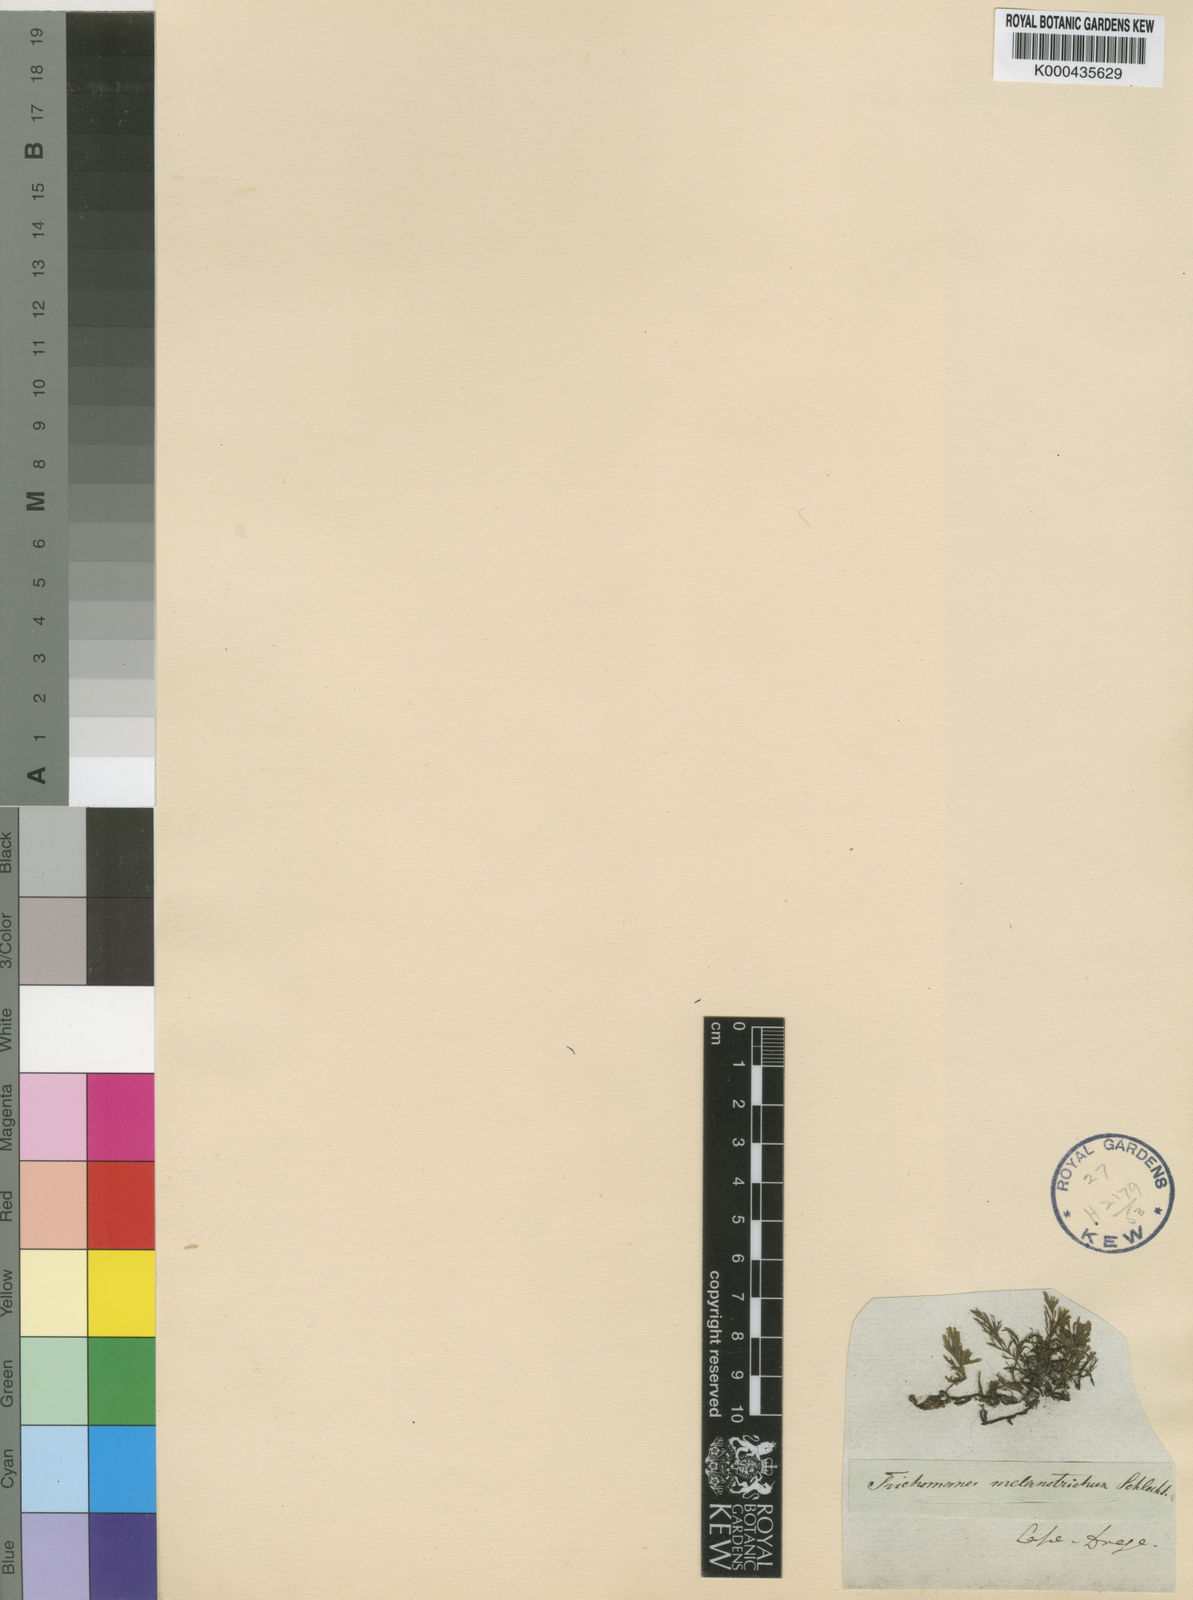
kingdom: Plantae
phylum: Tracheophyta
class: Polypodiopsida
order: Hymenophyllales
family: Hymenophyllaceae
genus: Hymenophyllum
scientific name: Hymenophyllum
